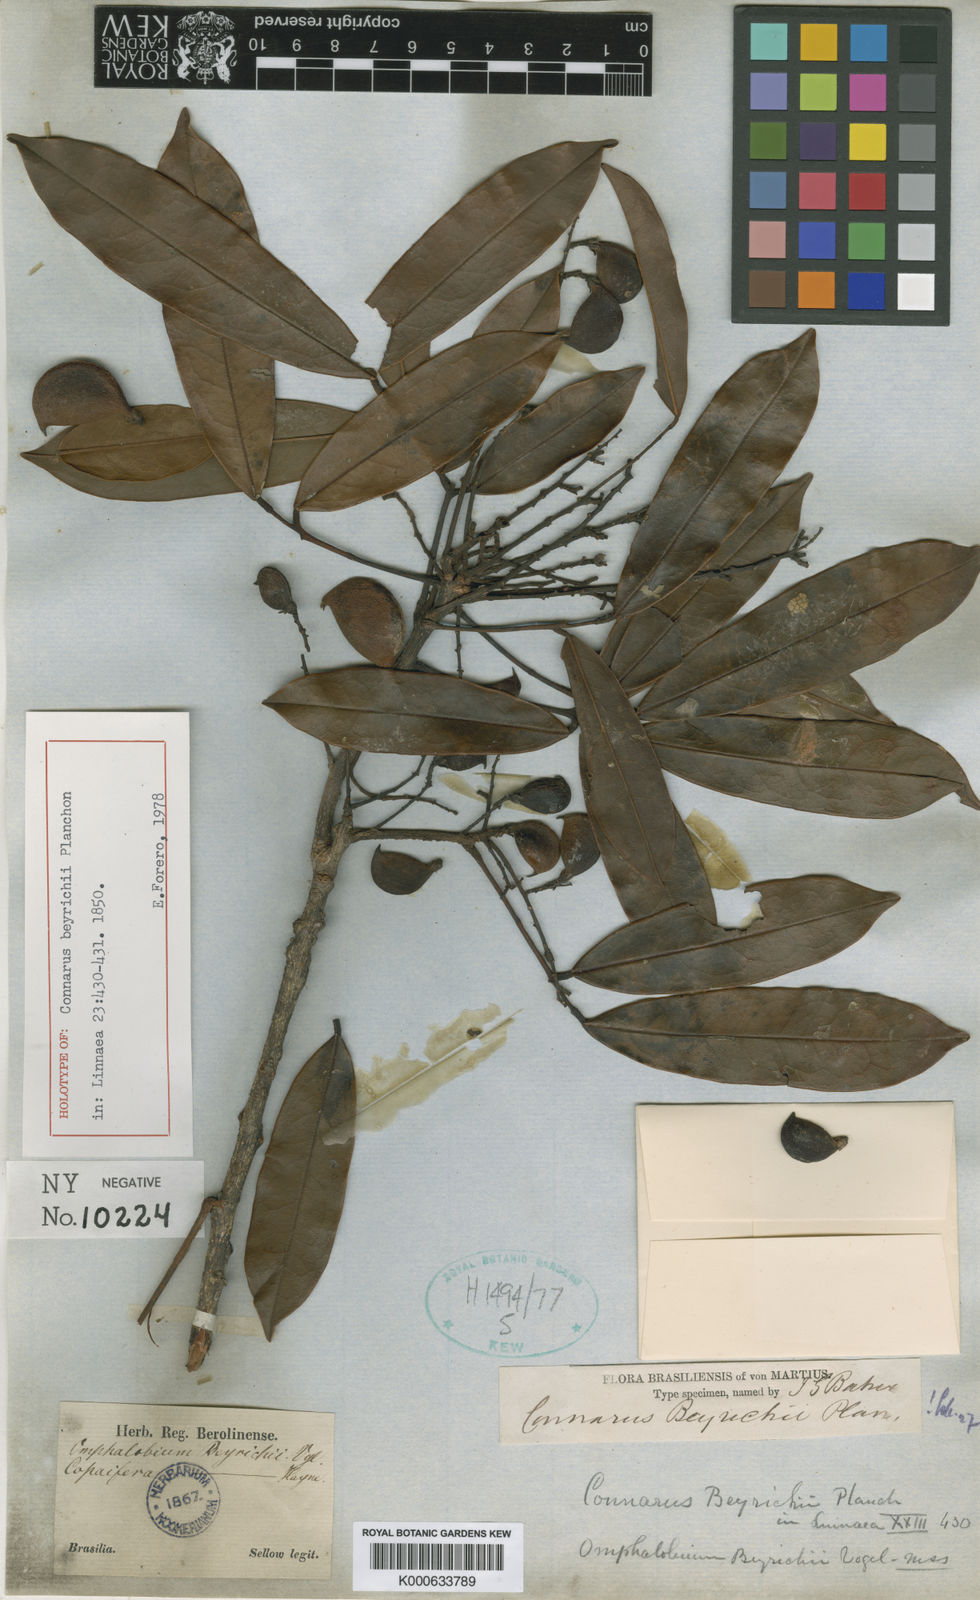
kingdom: Plantae
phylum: Tracheophyta
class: Magnoliopsida
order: Oxalidales
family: Connaraceae
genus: Connarus
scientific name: Connarus beyrichii
